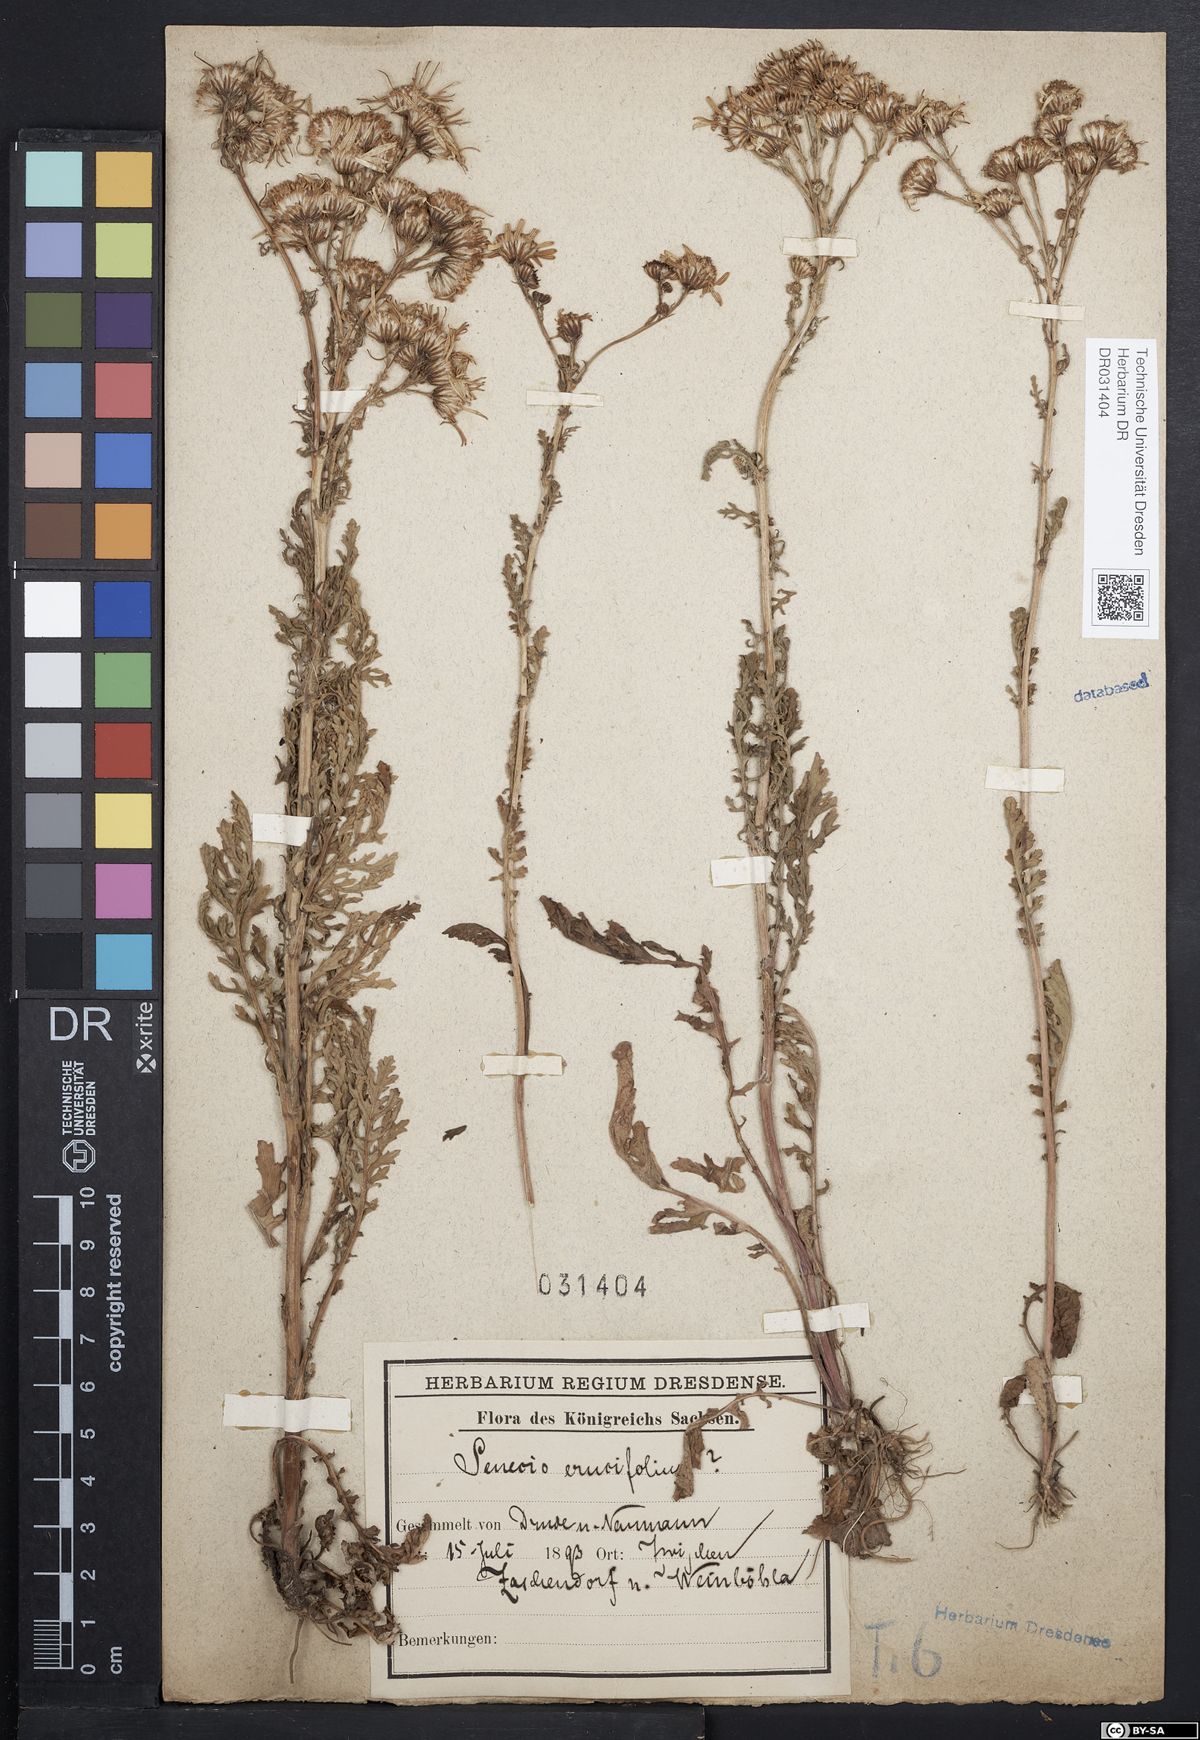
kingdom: Plantae
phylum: Tracheophyta
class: Magnoliopsida
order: Asterales
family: Asteraceae
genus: Jacobaea
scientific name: Jacobaea erucifolia
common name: Hoary ragwort
